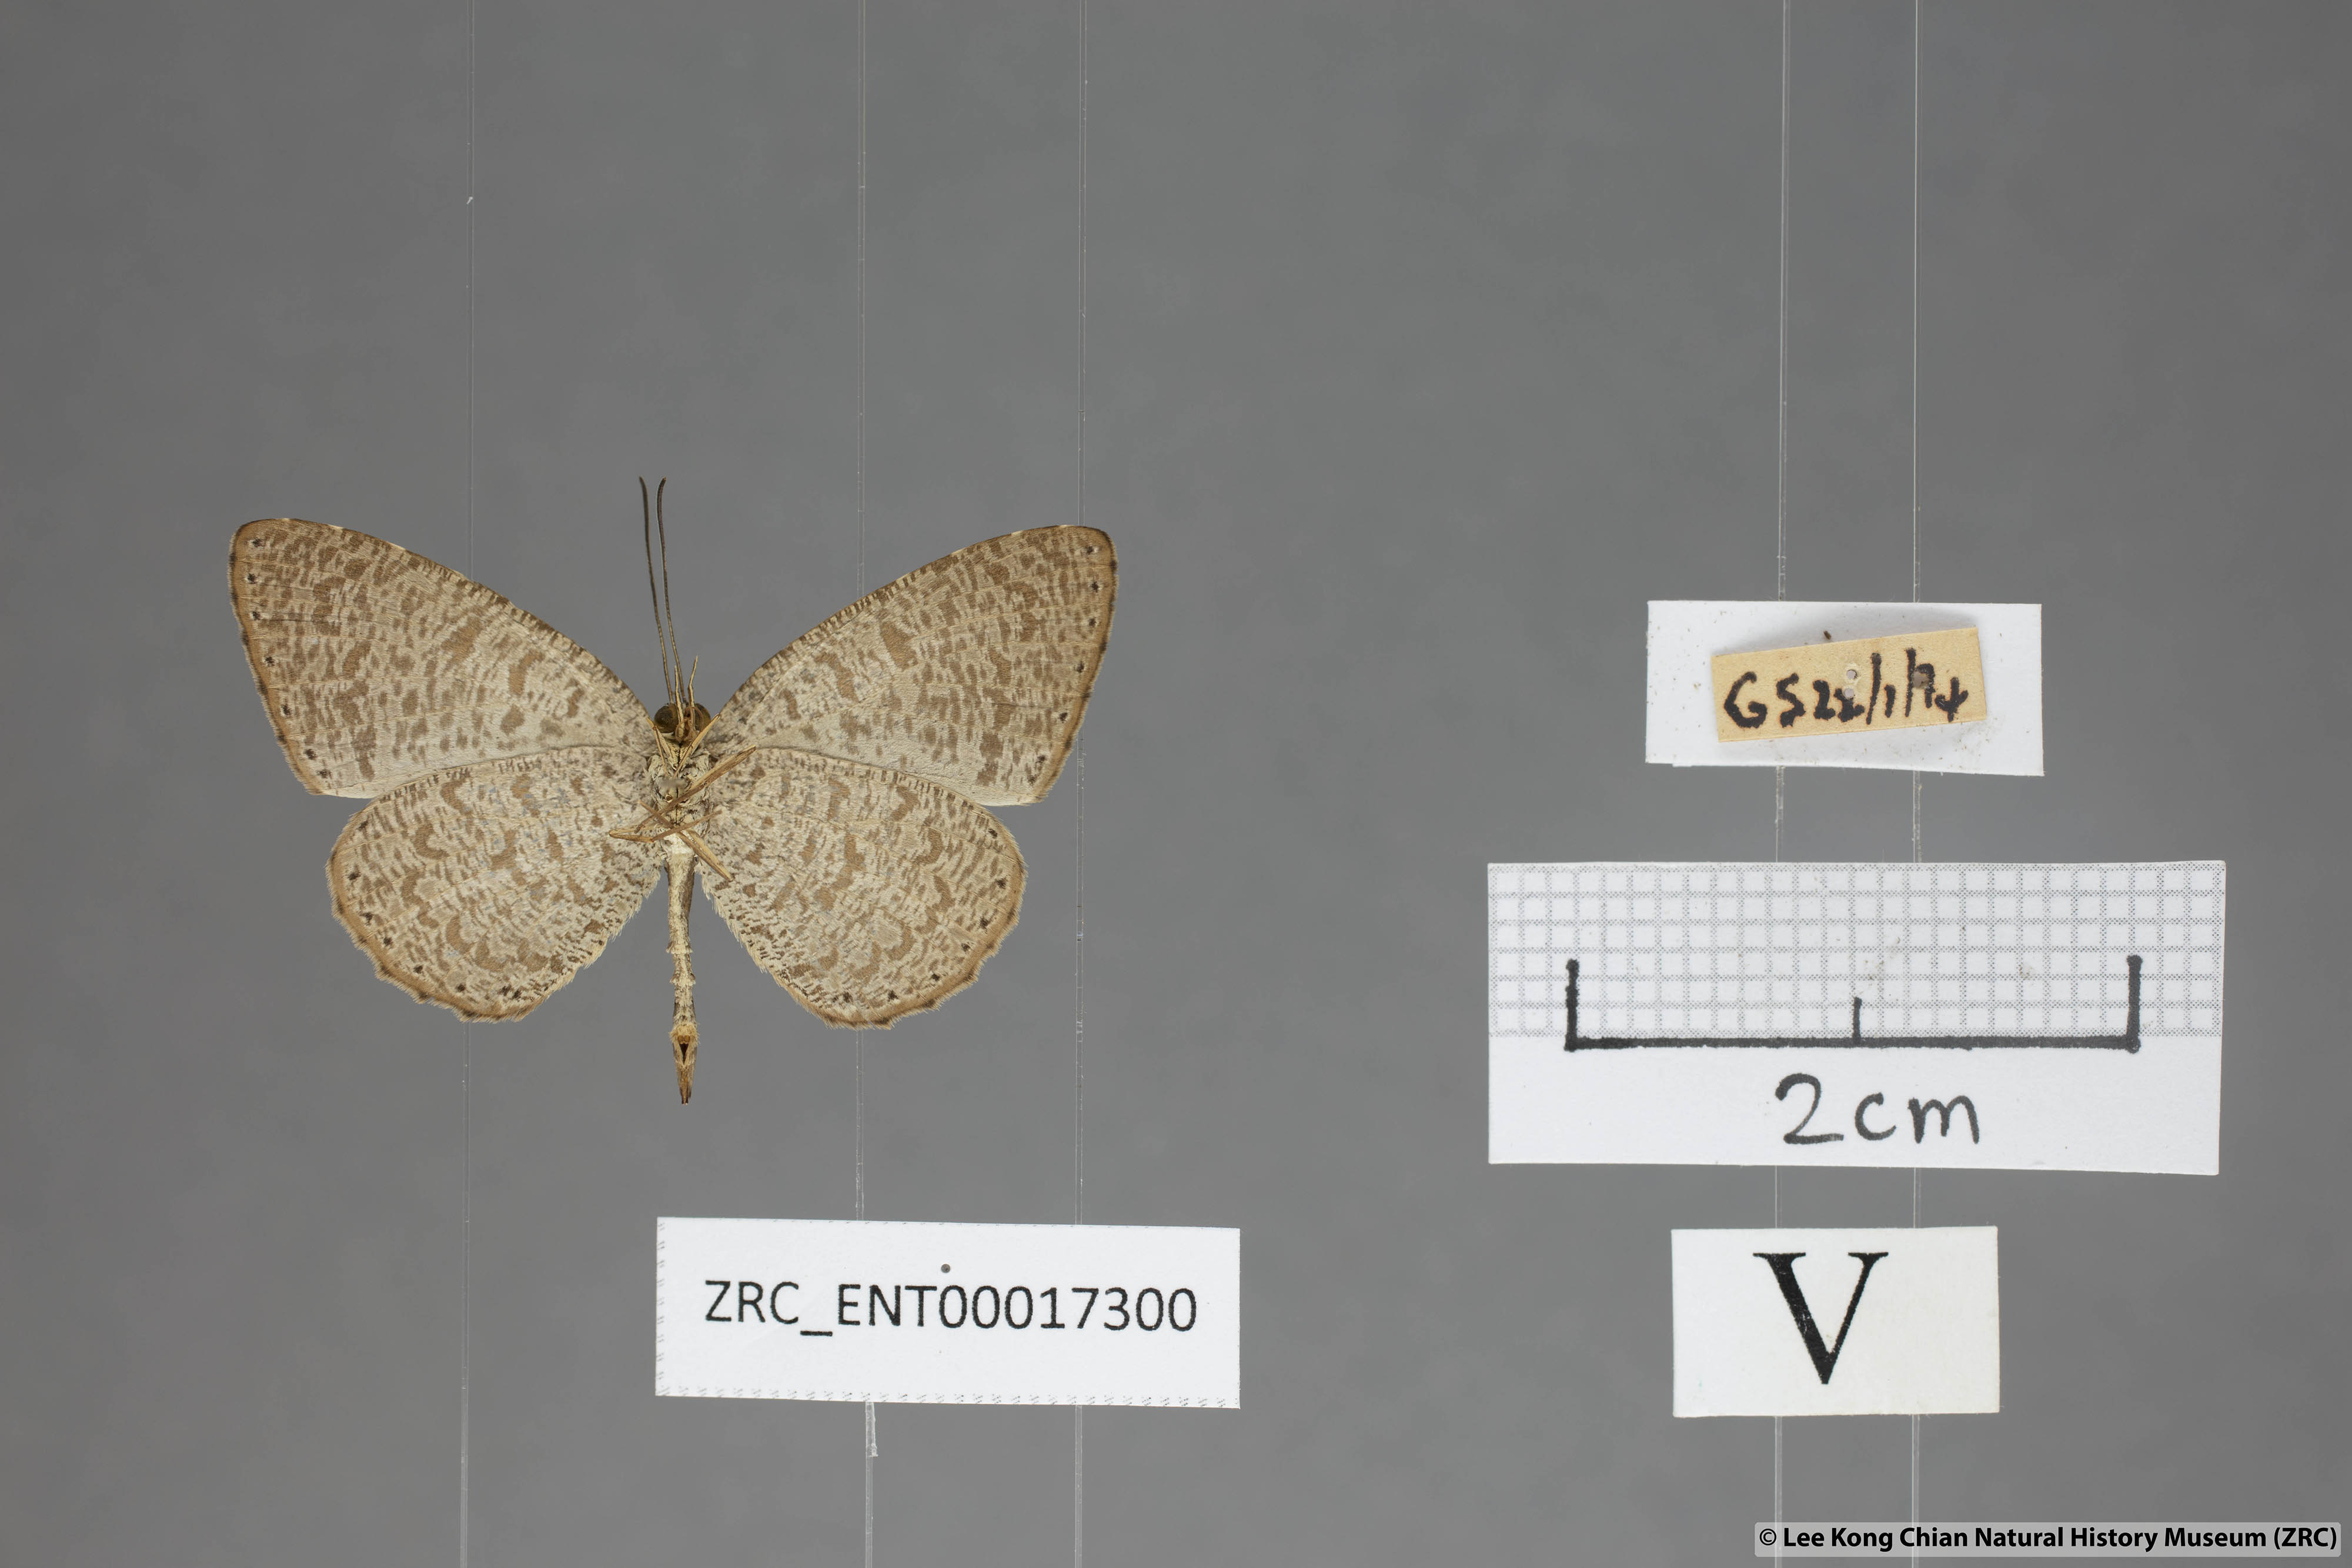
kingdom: Animalia
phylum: Arthropoda
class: Insecta
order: Lepidoptera
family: Lycaenidae
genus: Allotinus
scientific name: Allotinus strigatus
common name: Small malayan darkie
